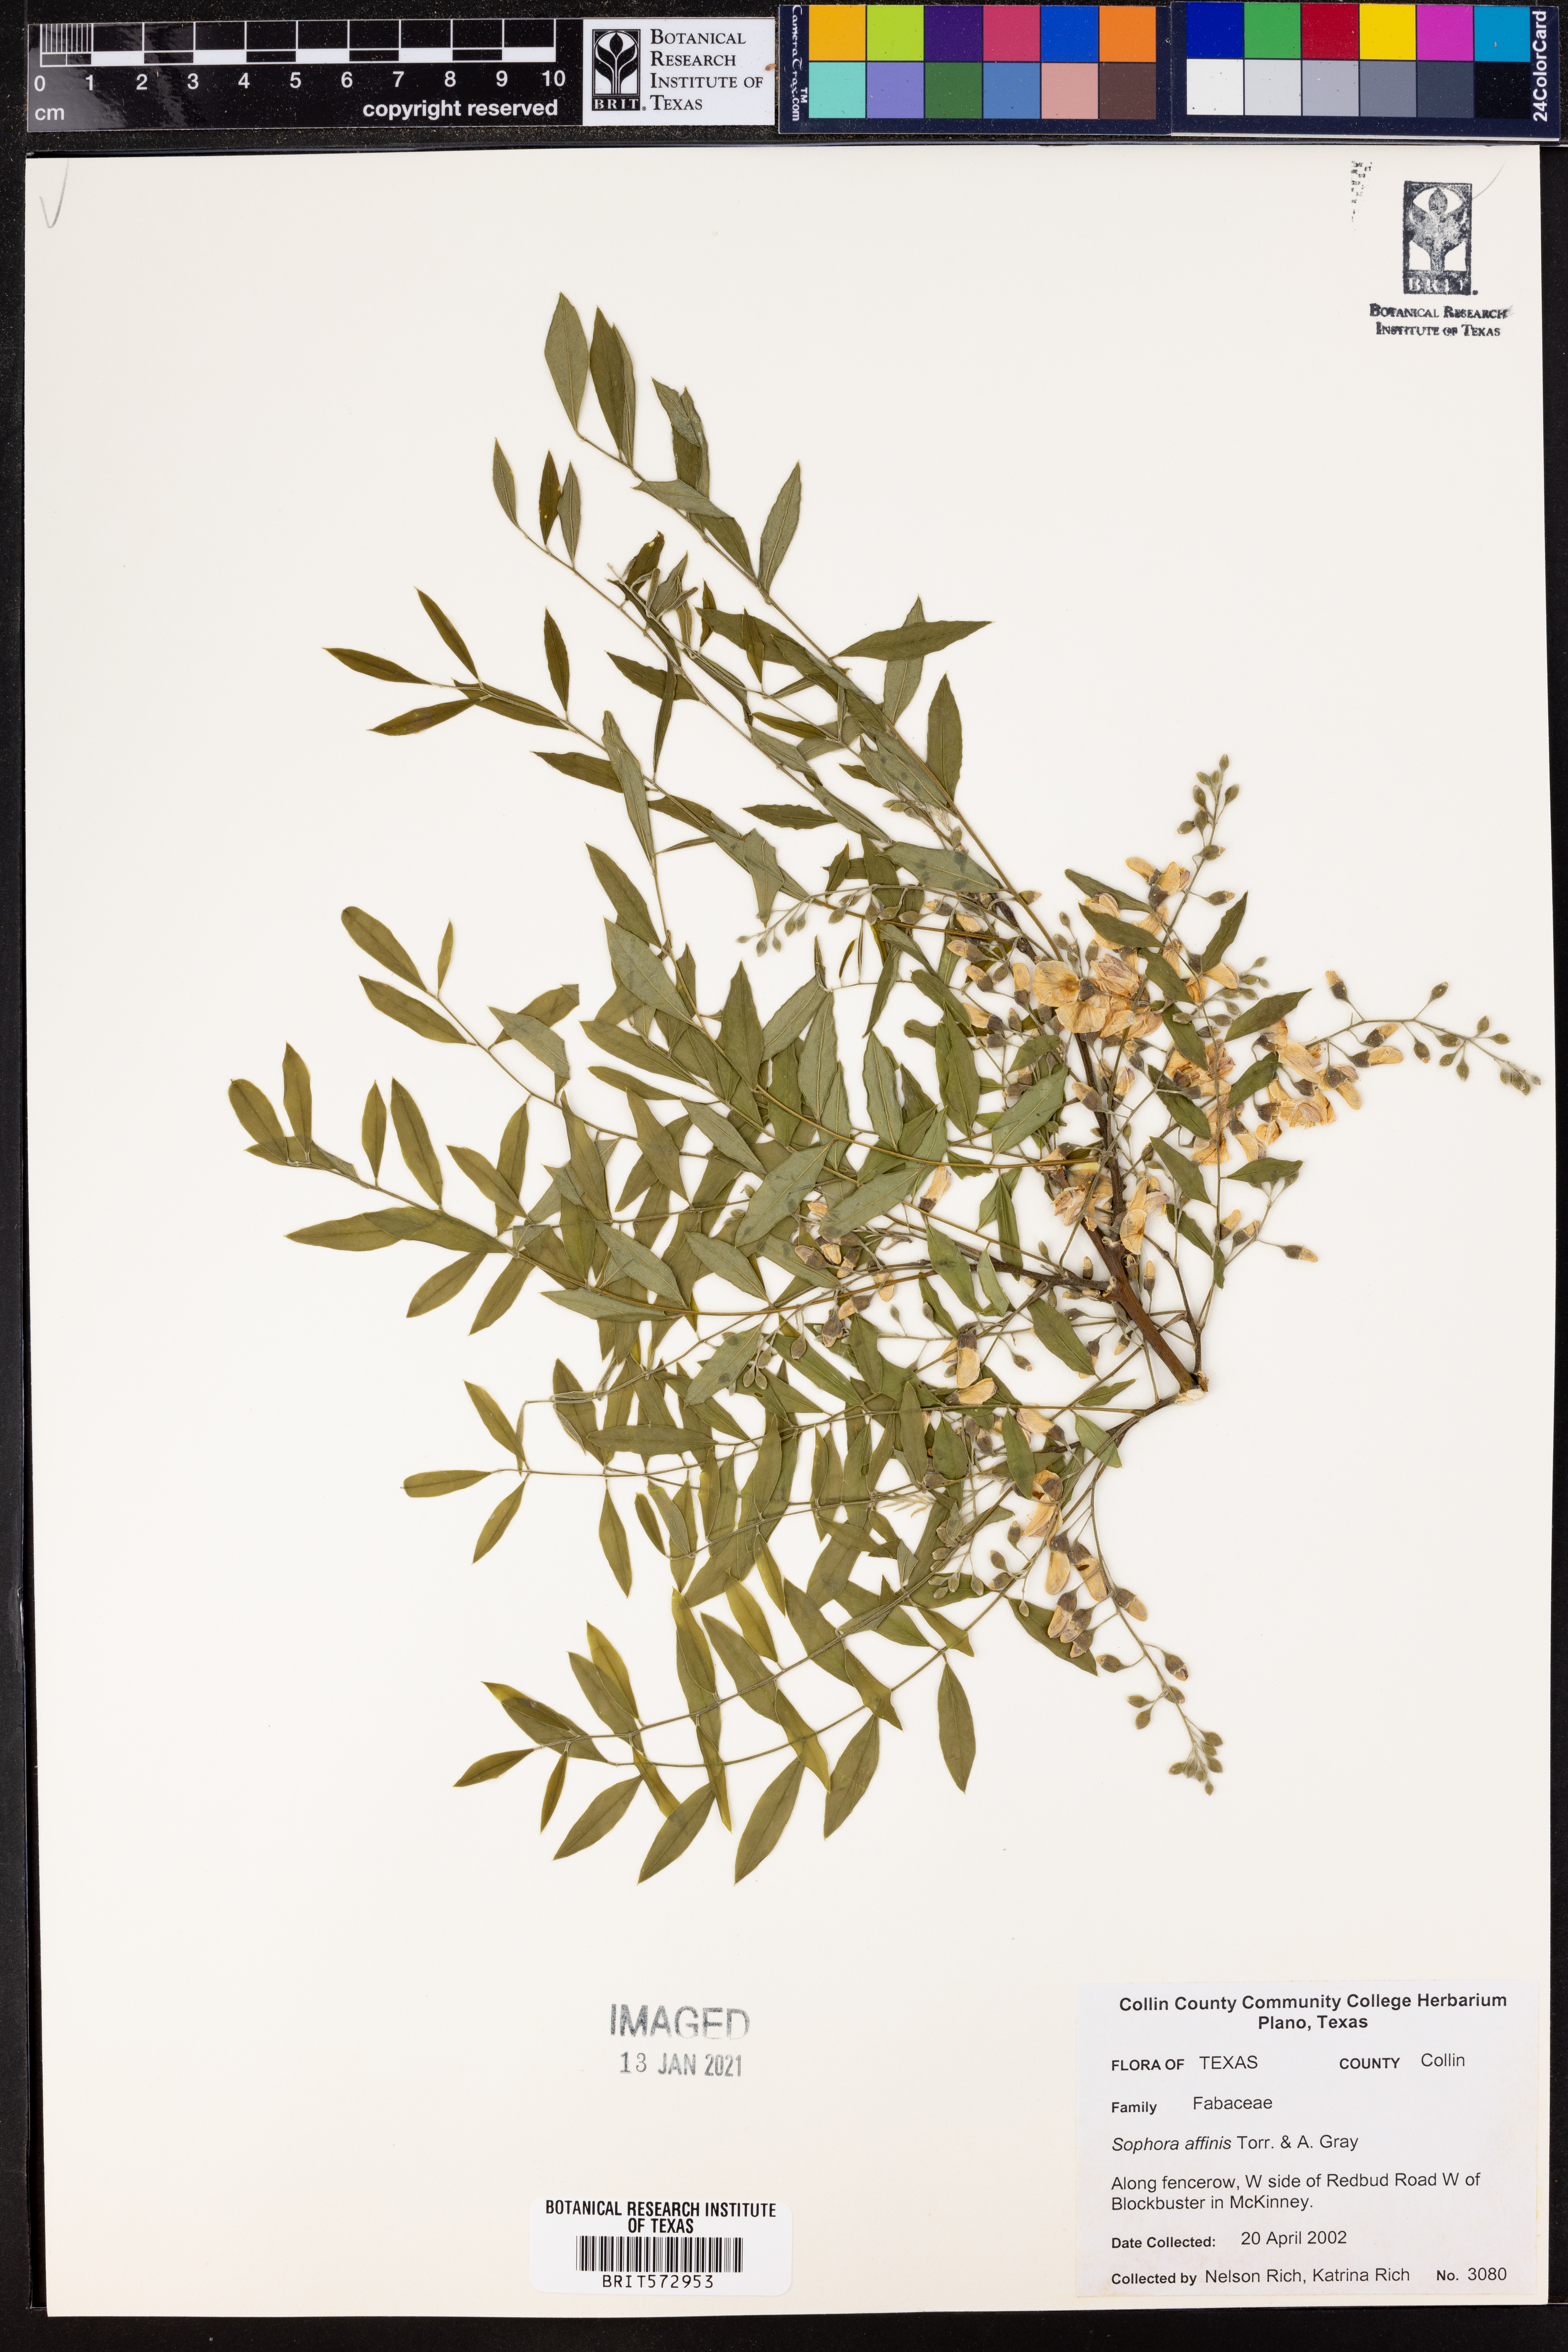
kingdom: Plantae
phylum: Tracheophyta
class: Magnoliopsida
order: Ericales
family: Polemoniaceae
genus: Phlox
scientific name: Phlox oklahomensis
